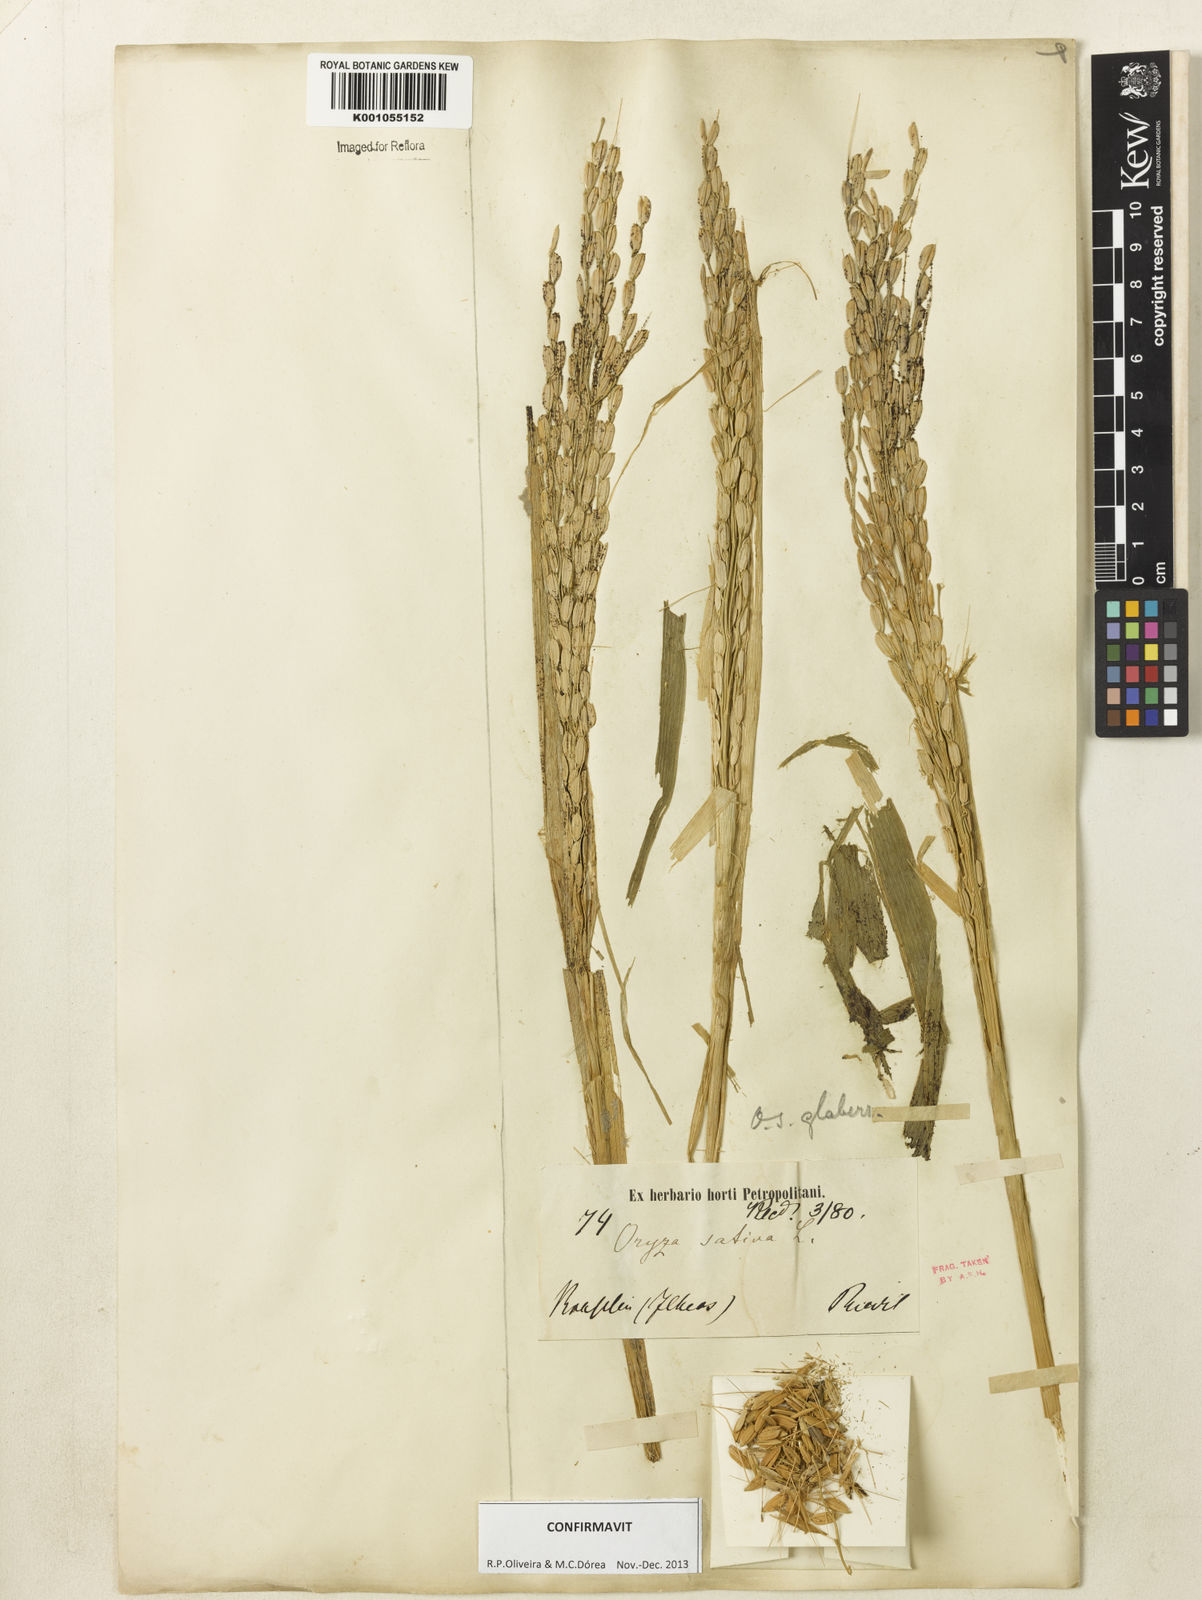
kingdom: Plantae
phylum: Tracheophyta
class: Liliopsida
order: Poales
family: Poaceae
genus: Oryza
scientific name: Oryza sativa
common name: Rice
